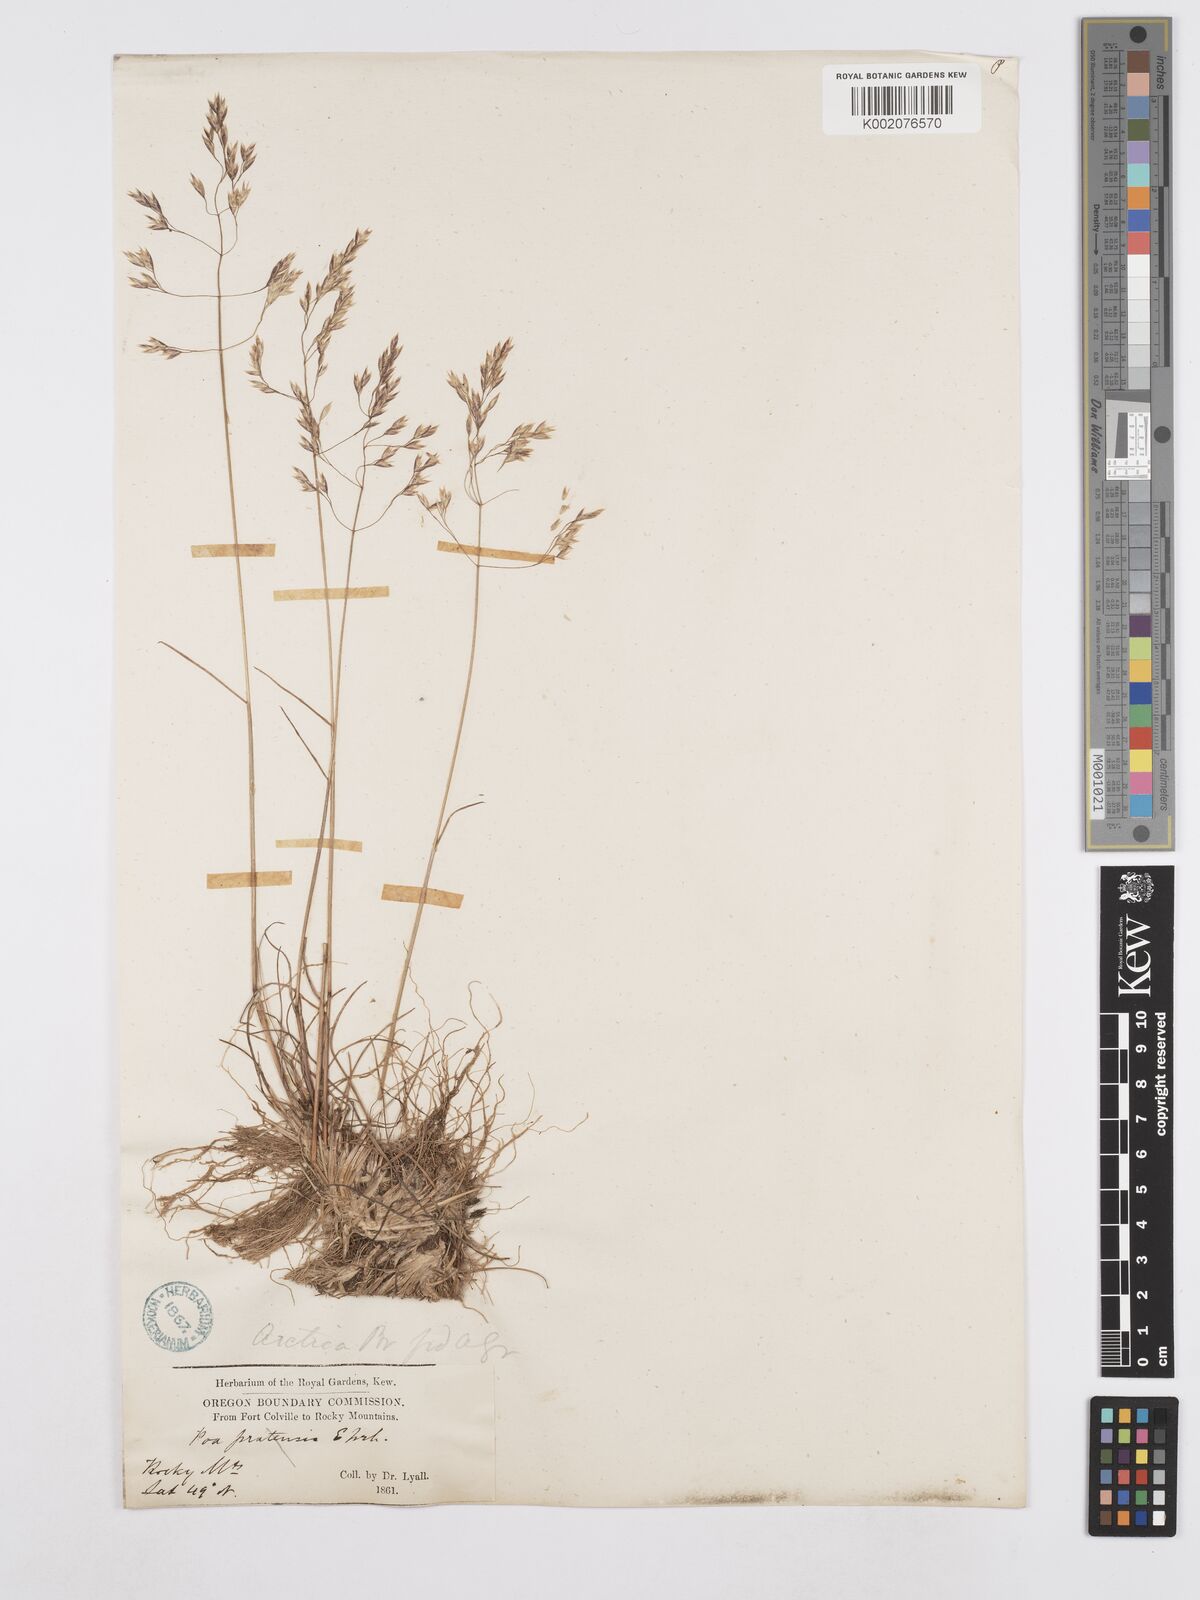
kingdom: Plantae
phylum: Tracheophyta
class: Liliopsida
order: Poales
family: Poaceae
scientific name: Poaceae
